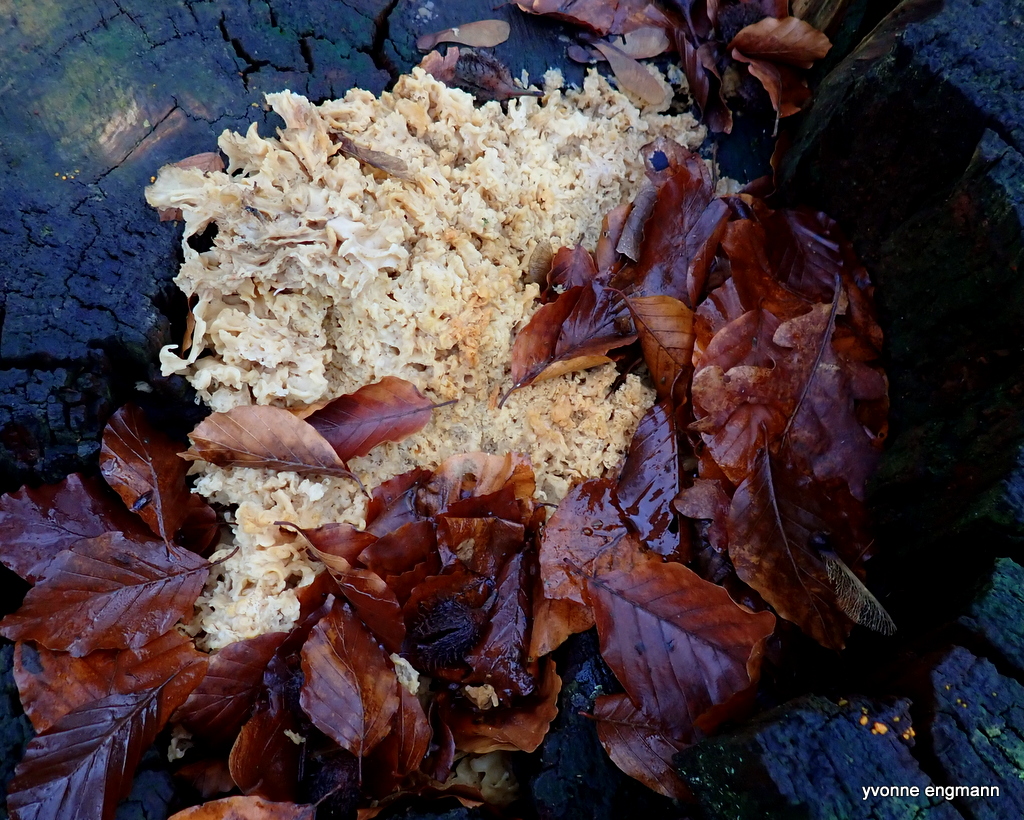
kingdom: Fungi
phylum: Basidiomycota
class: Agaricomycetes
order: Polyporales
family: Sparassidaceae
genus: Sparassis
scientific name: Sparassis crispa
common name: kruset blomkålssvamp
